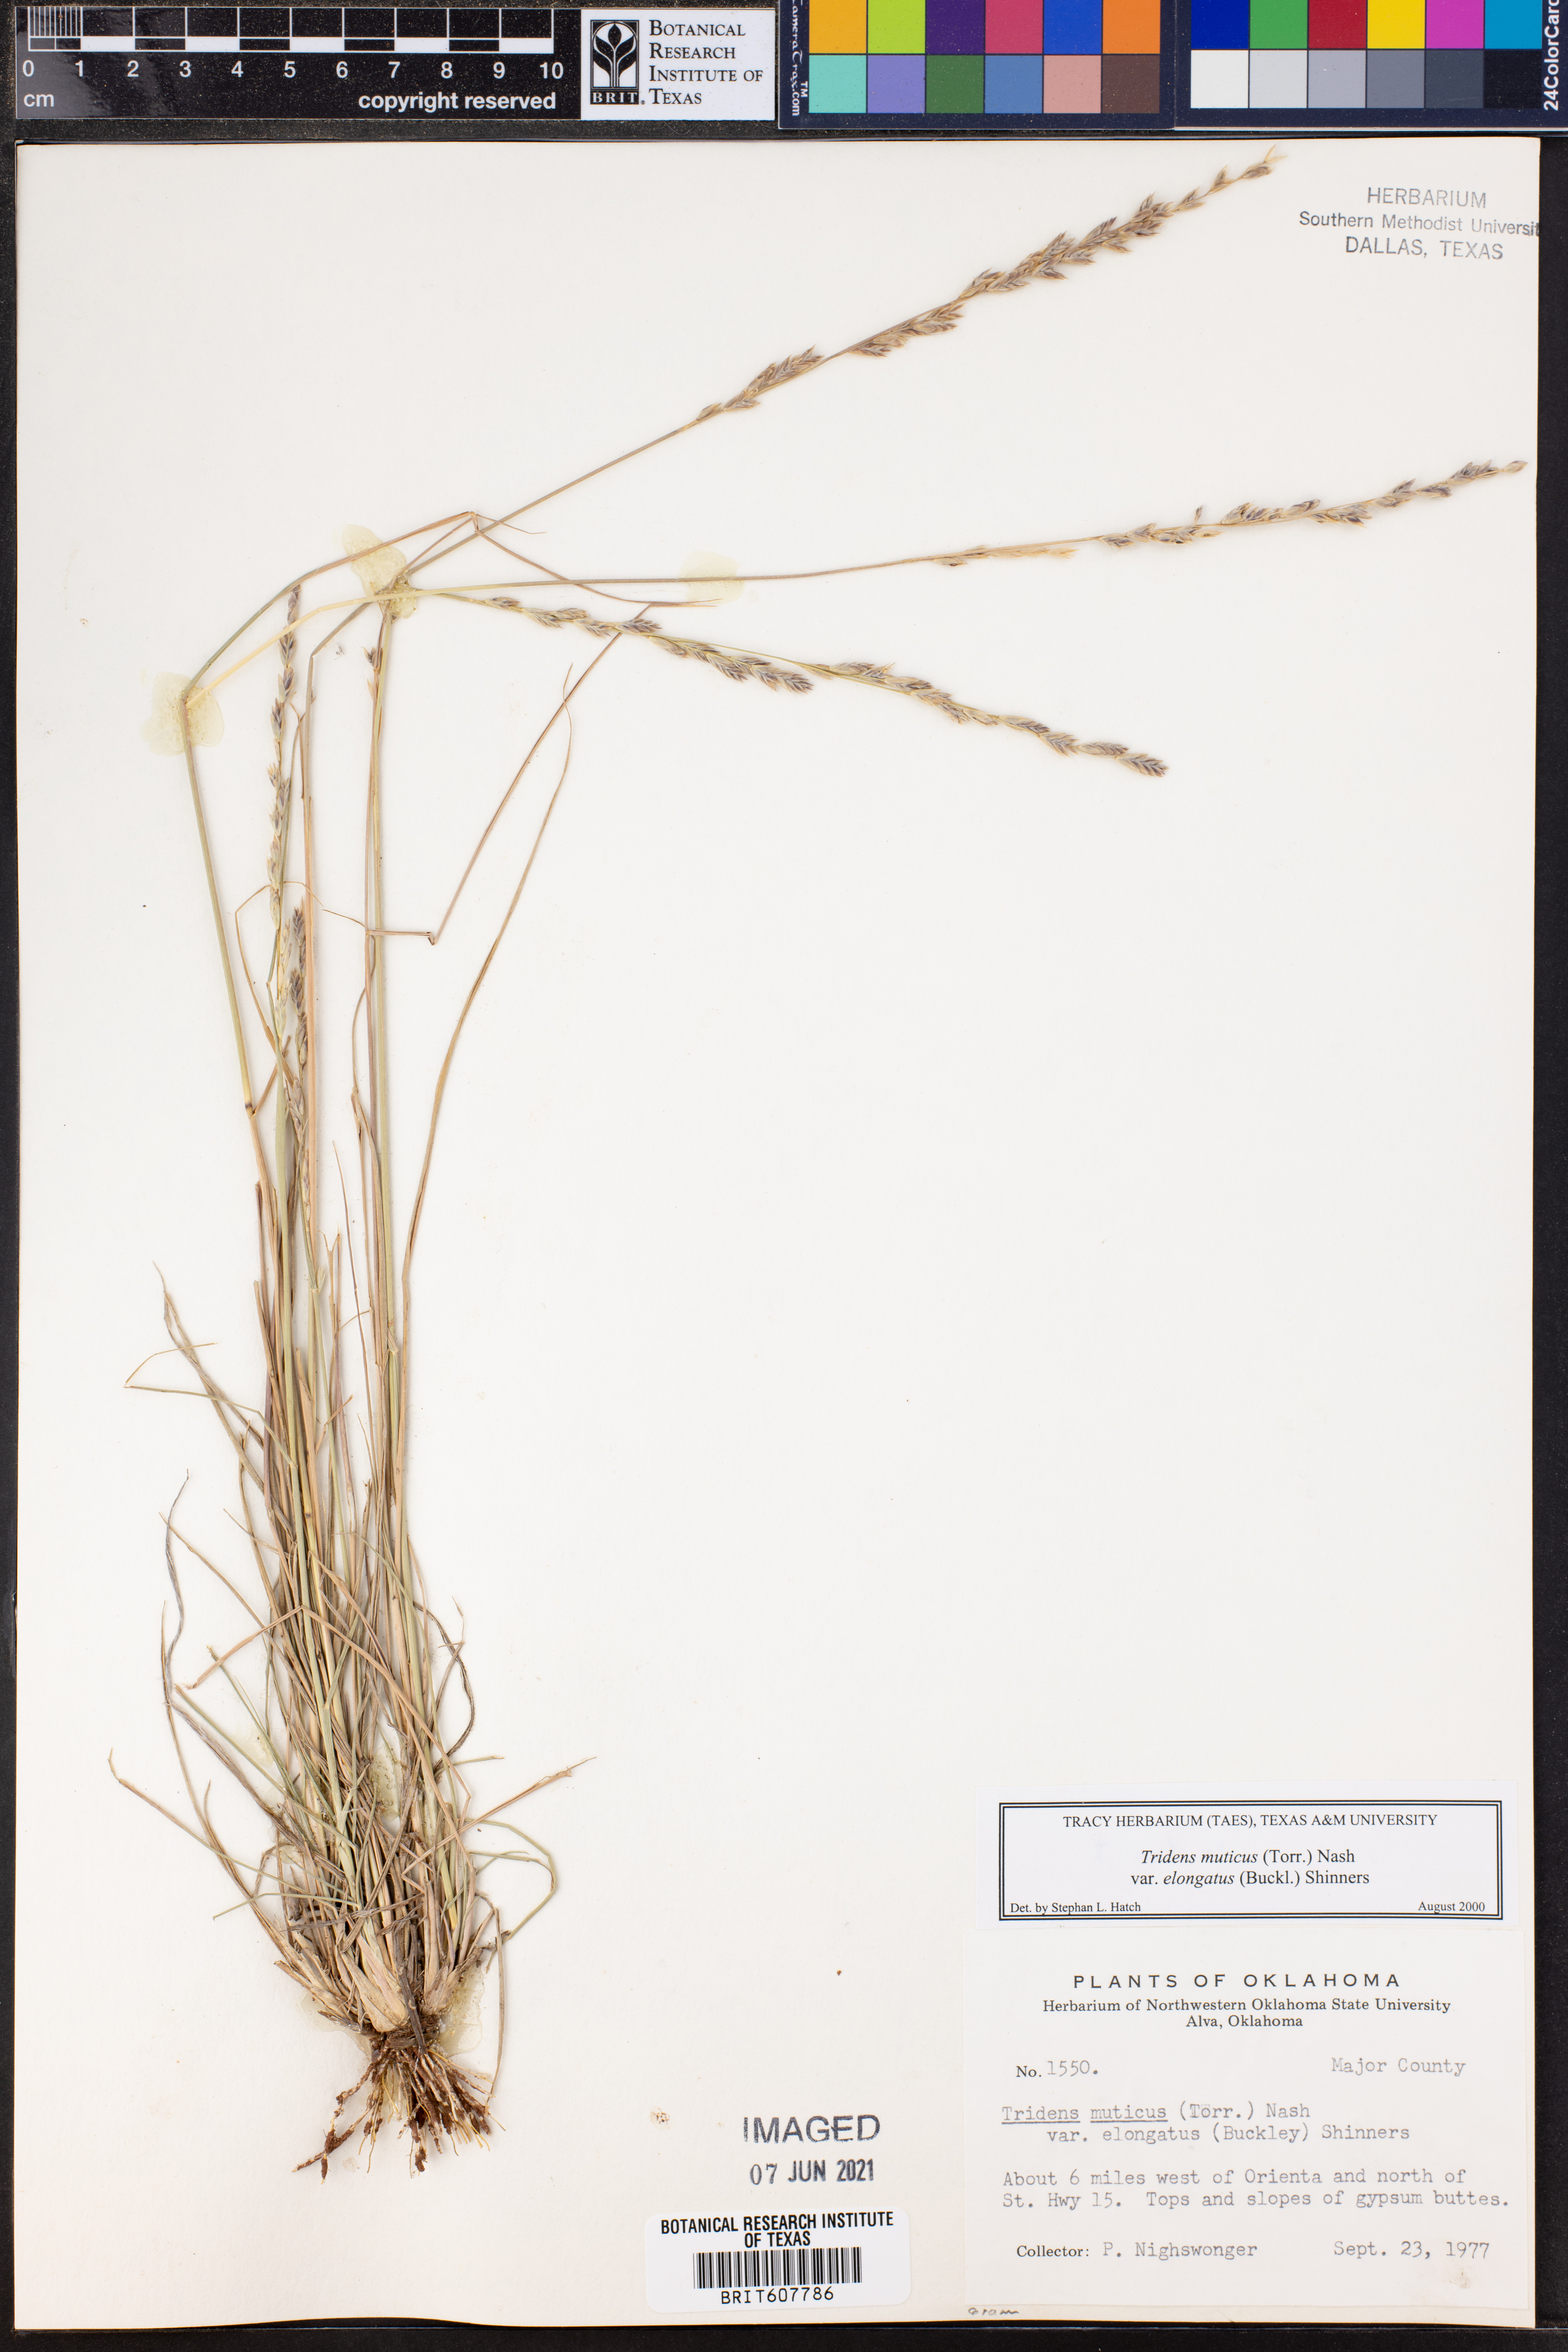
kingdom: Plantae
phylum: Tracheophyta
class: Liliopsida
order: Poales
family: Poaceae
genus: Tridentopsis
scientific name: Tridentopsis mutica
